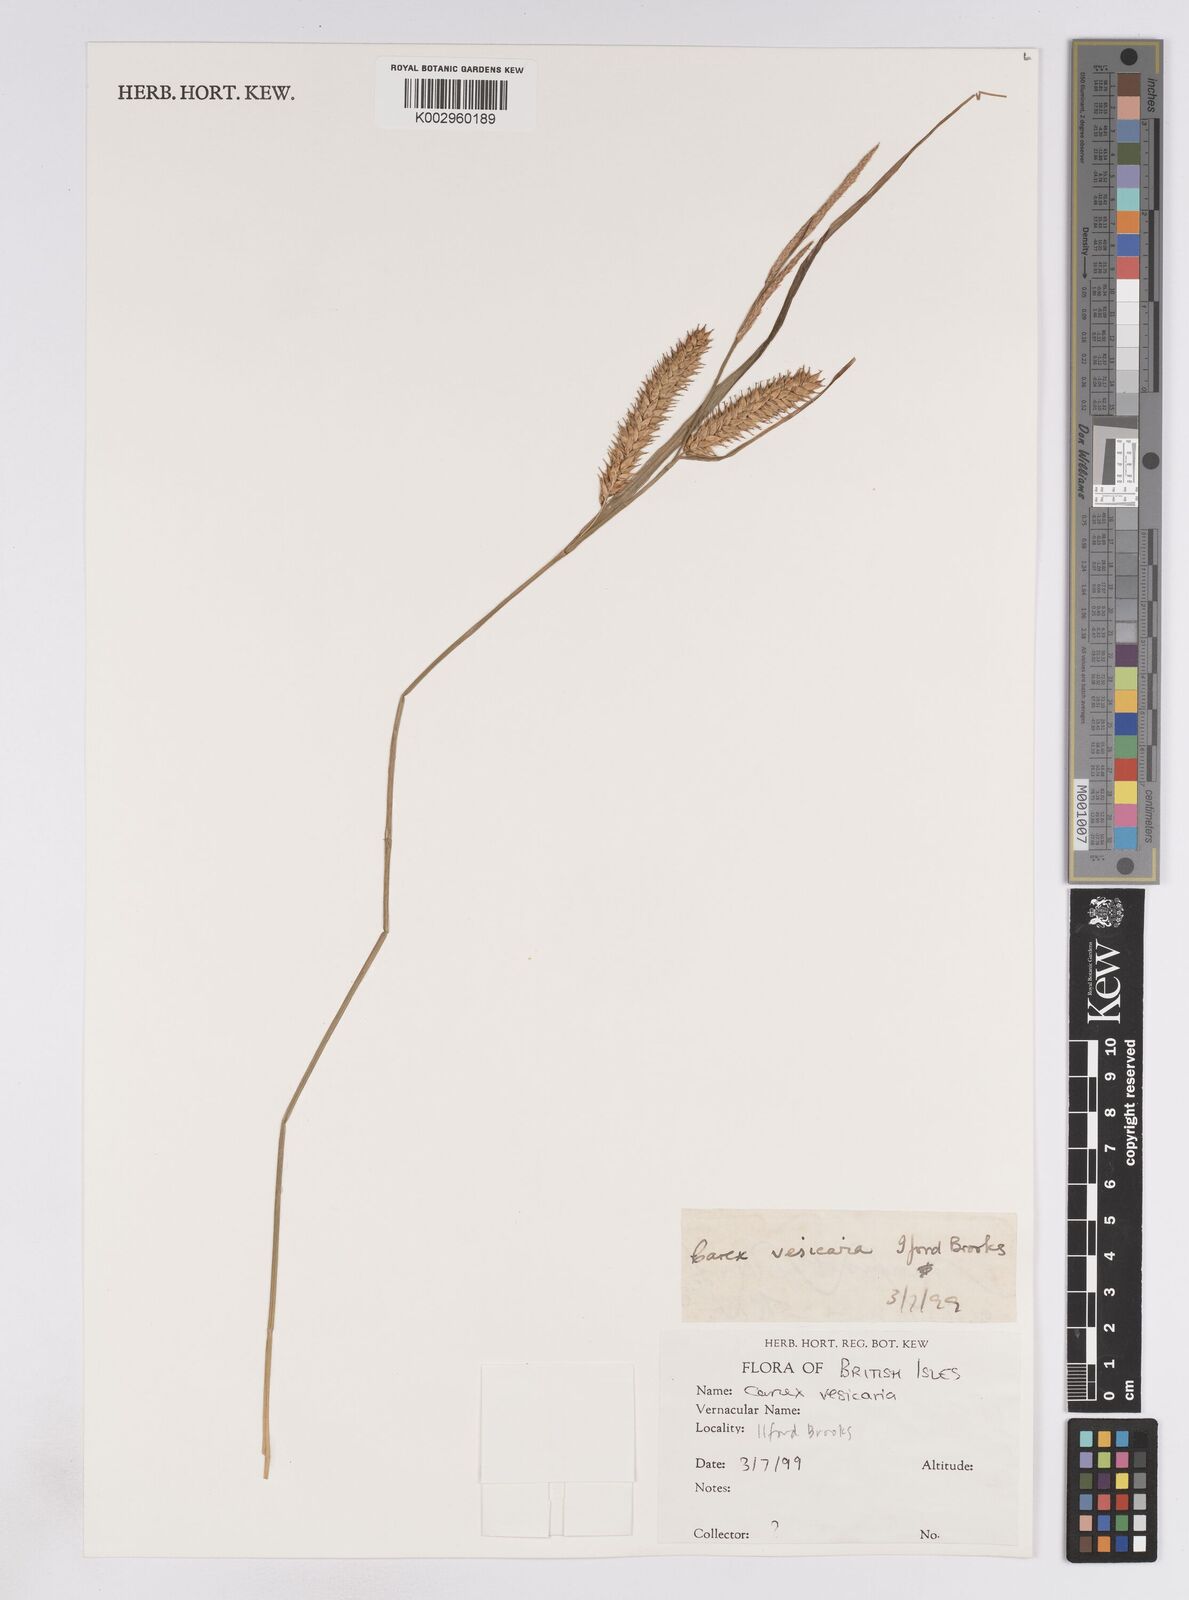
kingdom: Plantae
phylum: Tracheophyta
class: Liliopsida
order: Poales
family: Cyperaceae
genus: Carex
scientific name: Carex vesicaria
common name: Bladder-sedge
